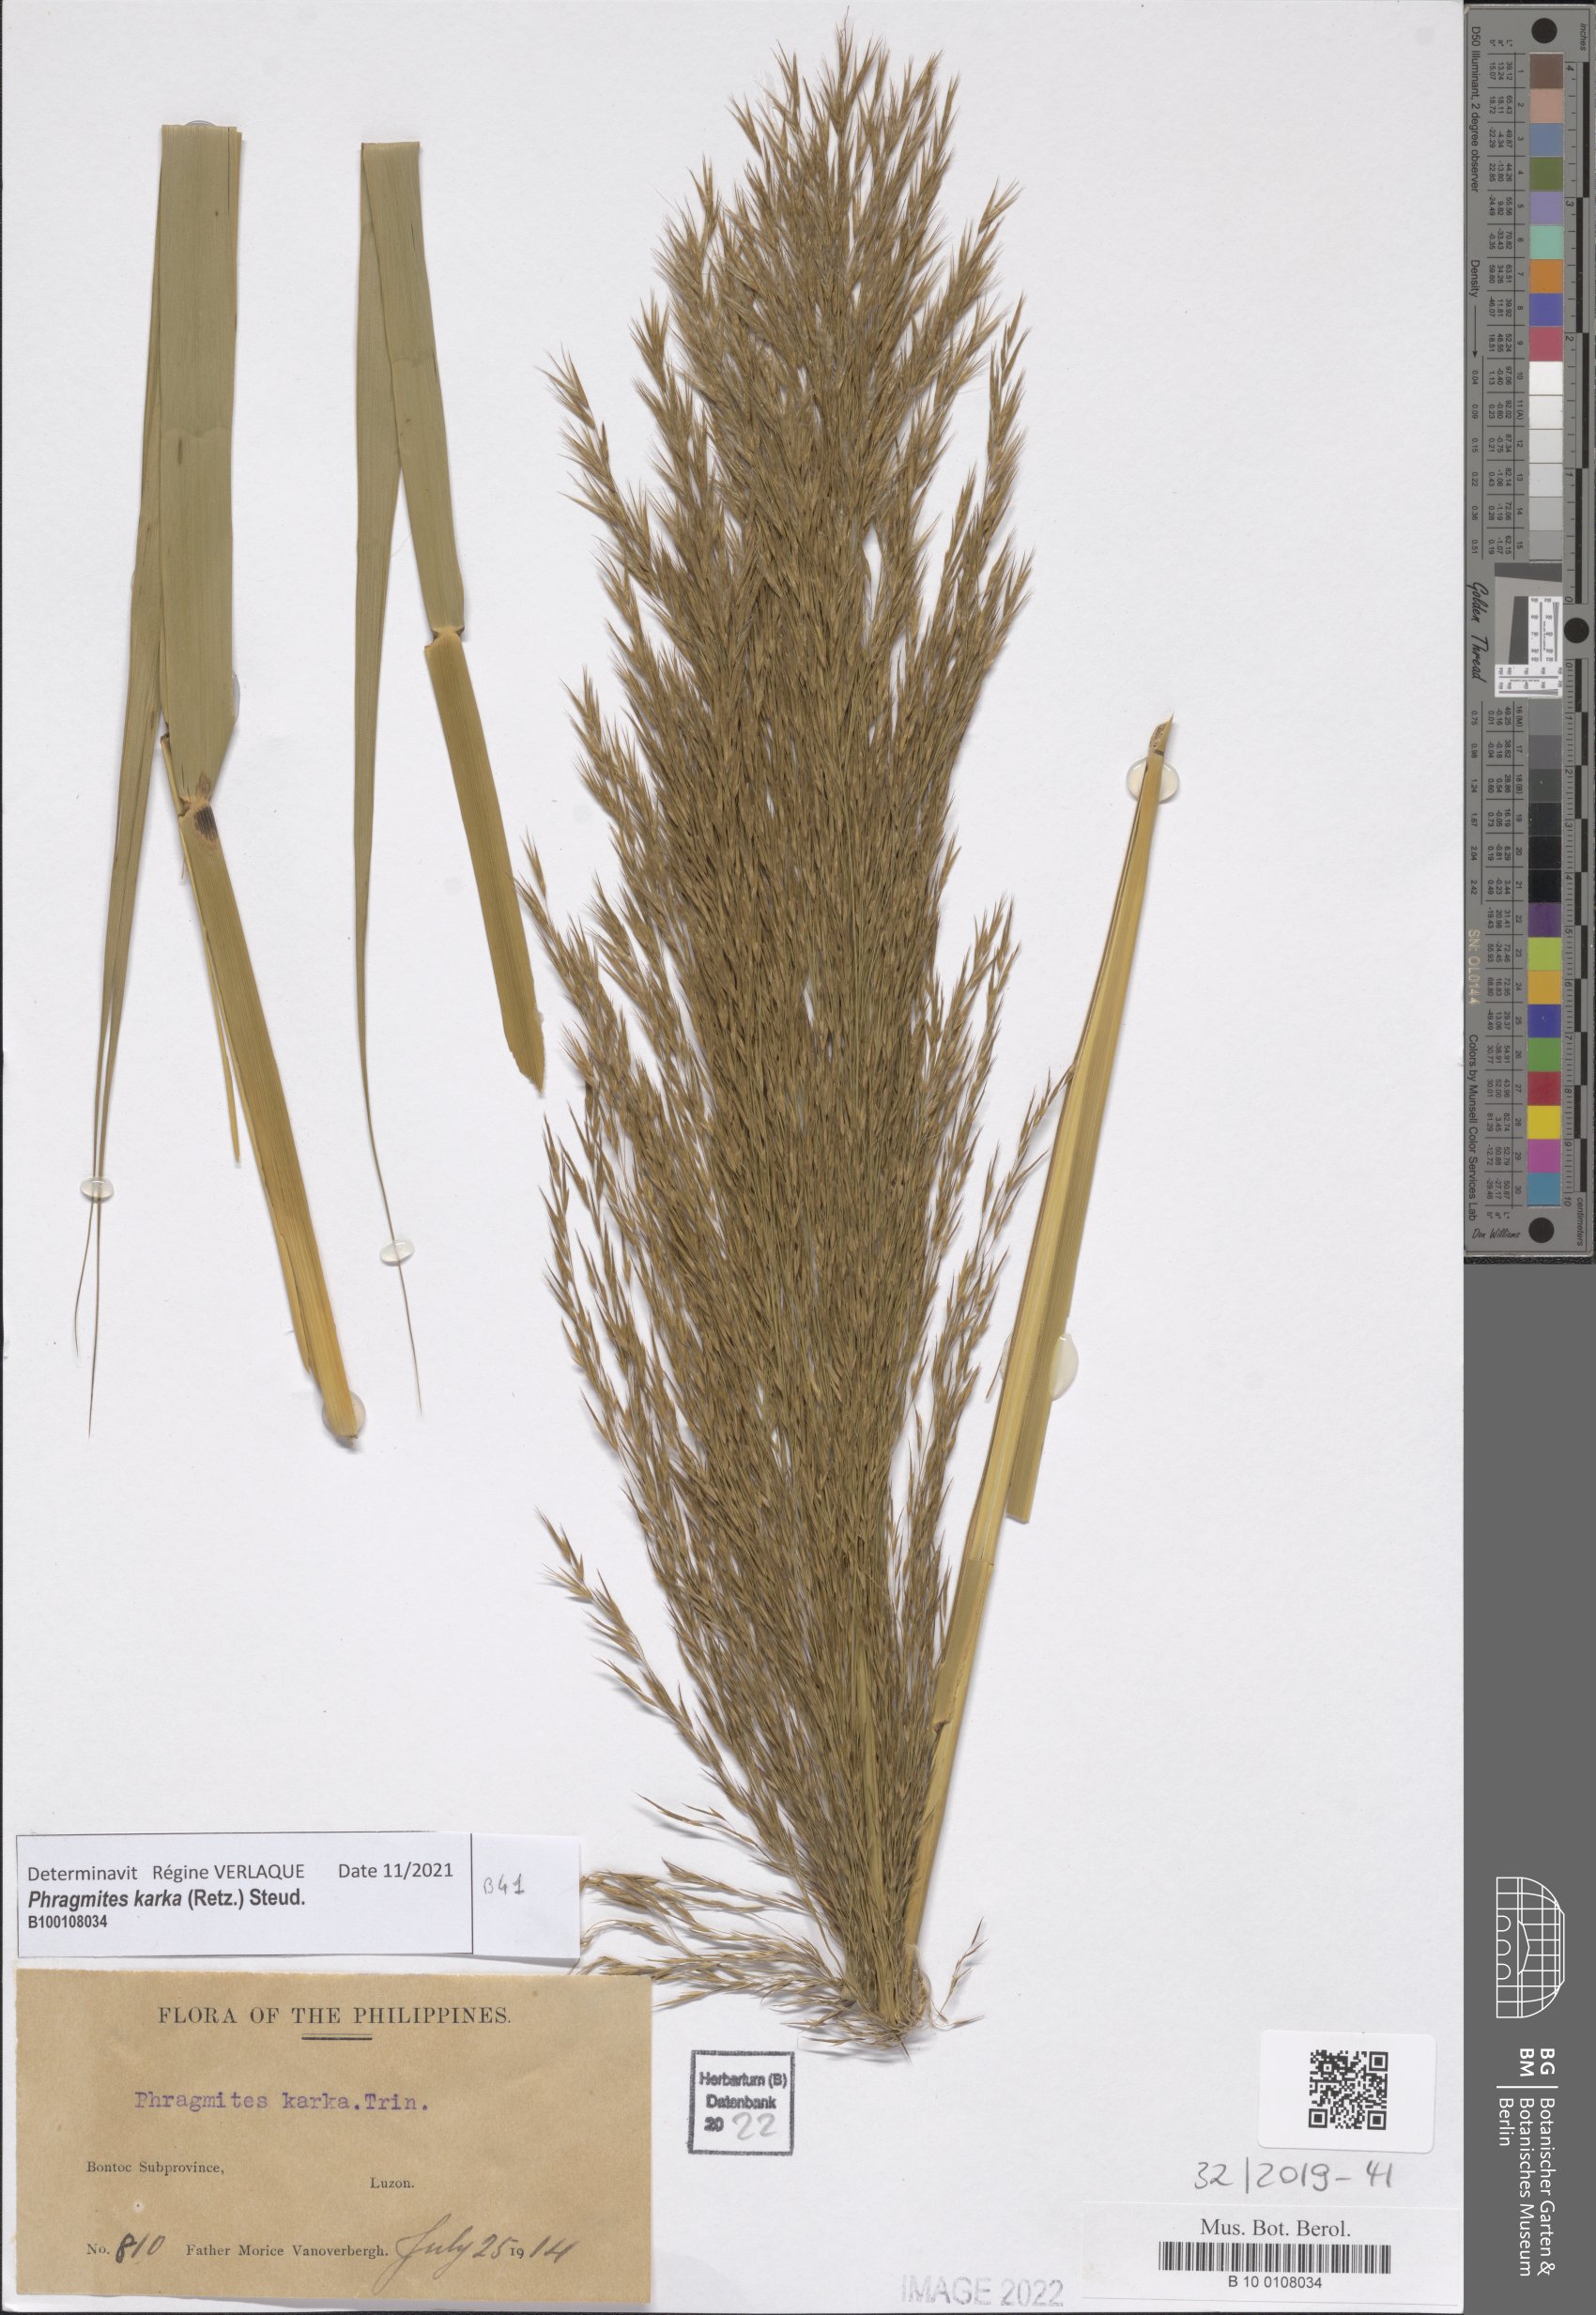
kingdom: Plantae
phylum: Tracheophyta
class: Liliopsida
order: Poales
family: Poaceae
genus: Phragmites
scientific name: Phragmites karka
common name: Tropical reed
